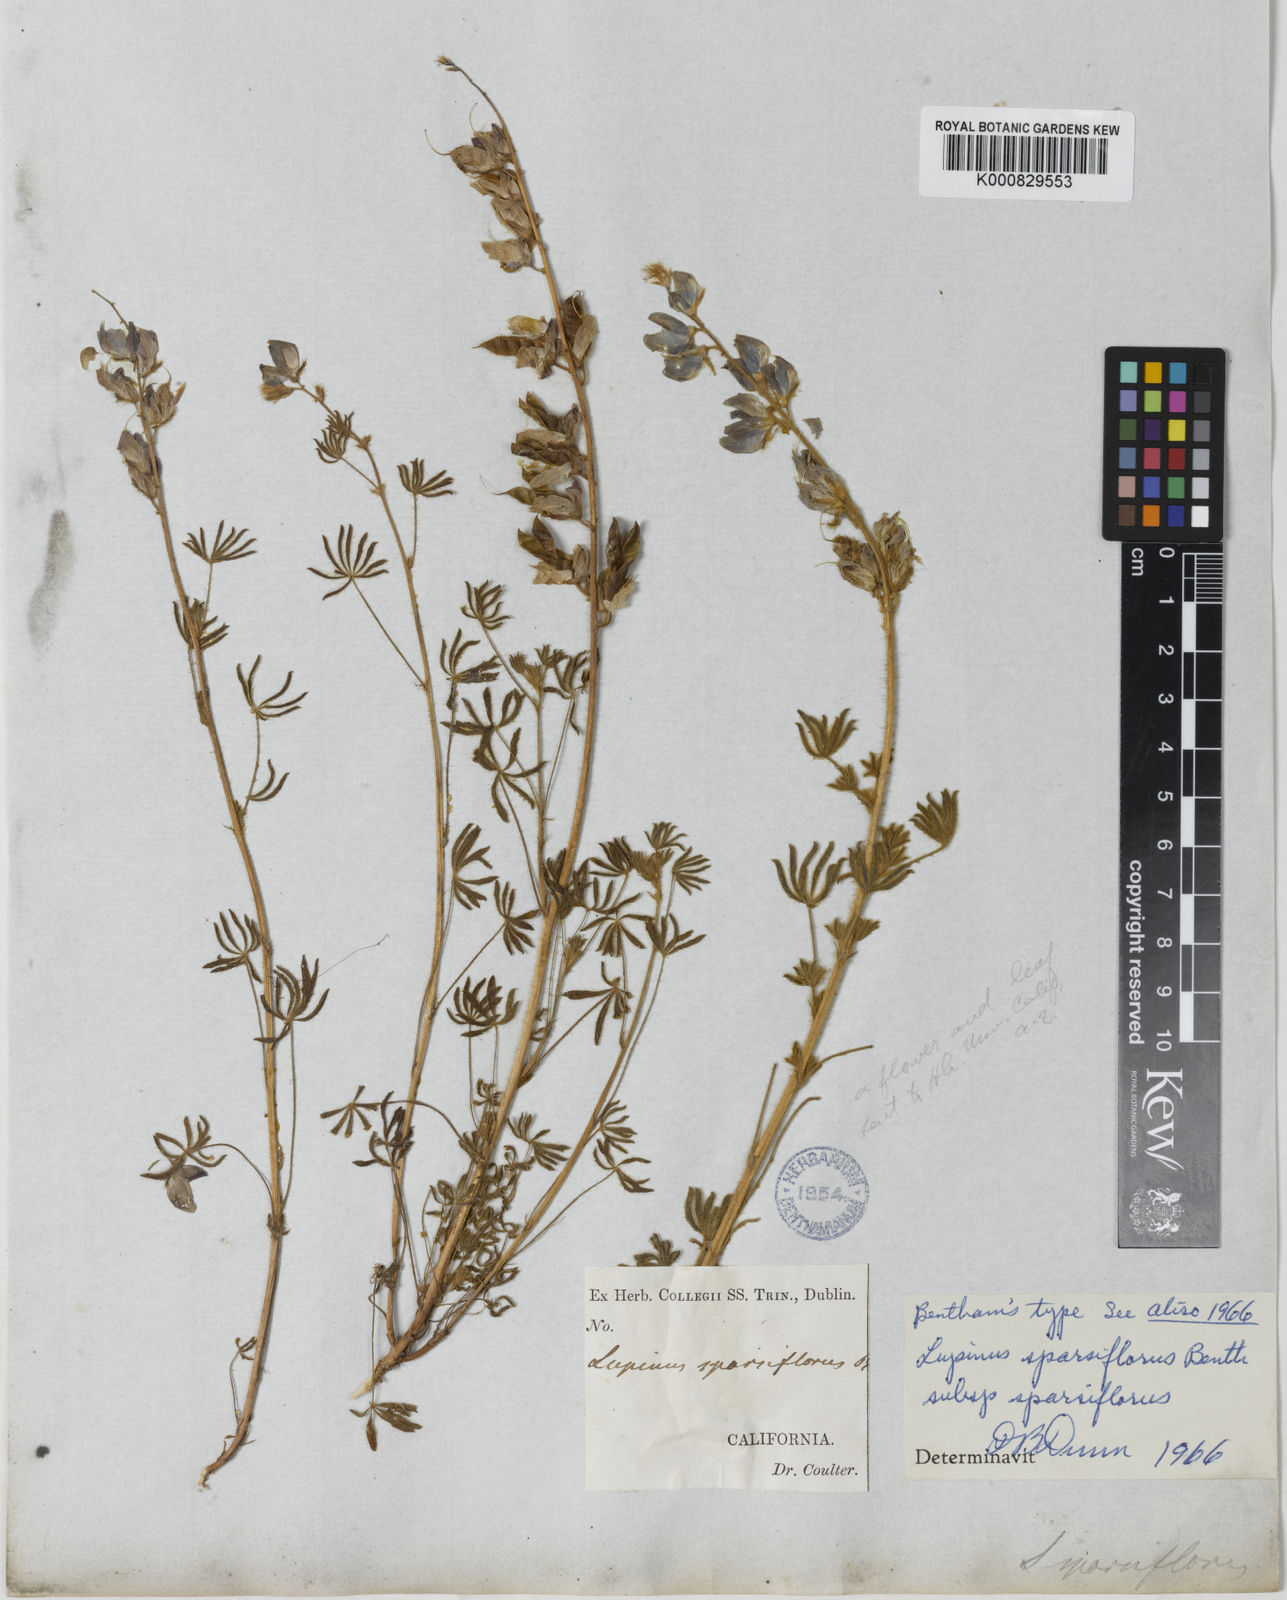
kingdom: Plantae
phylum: Tracheophyta
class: Magnoliopsida
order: Fabales
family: Fabaceae
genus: Lupinus
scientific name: Lupinus sparsiflorus
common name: Coulter's lupine
